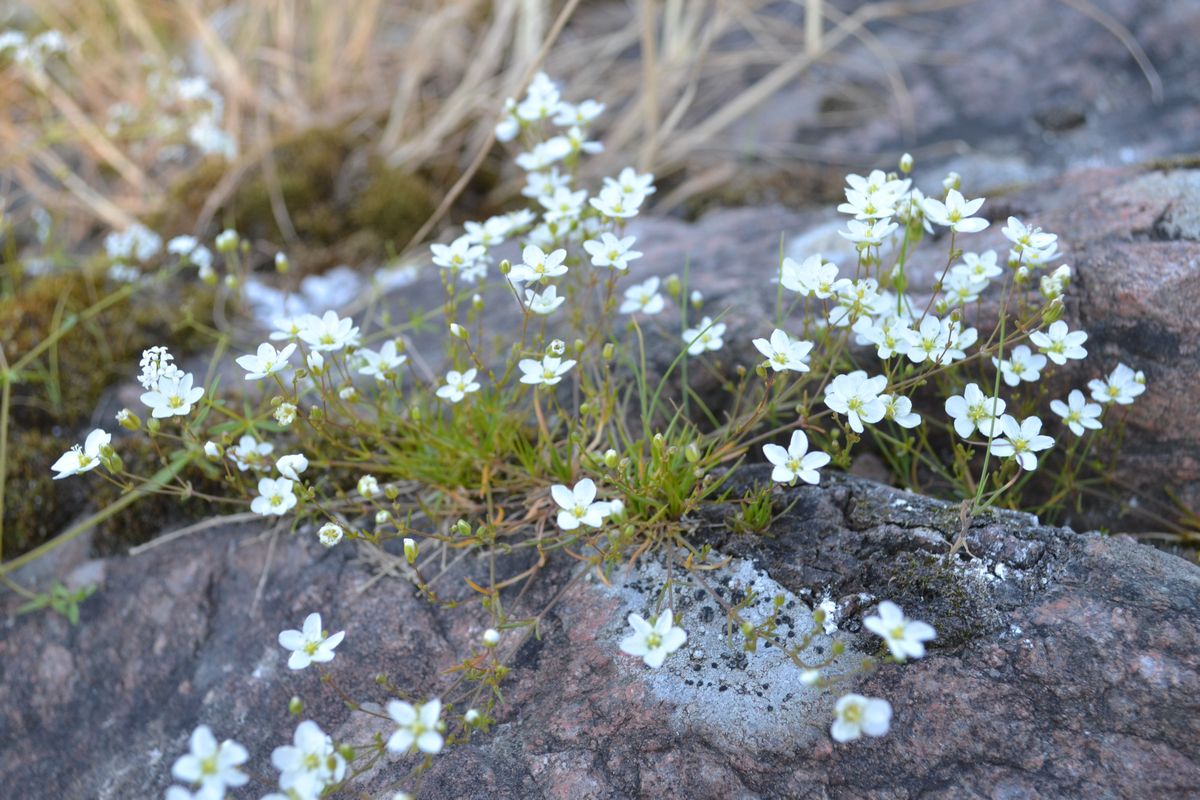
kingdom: Plantae
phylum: Tracheophyta
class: Magnoliopsida
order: Caryophyllales
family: Caryophyllaceae
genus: Sagina
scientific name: Sagina nodosa
